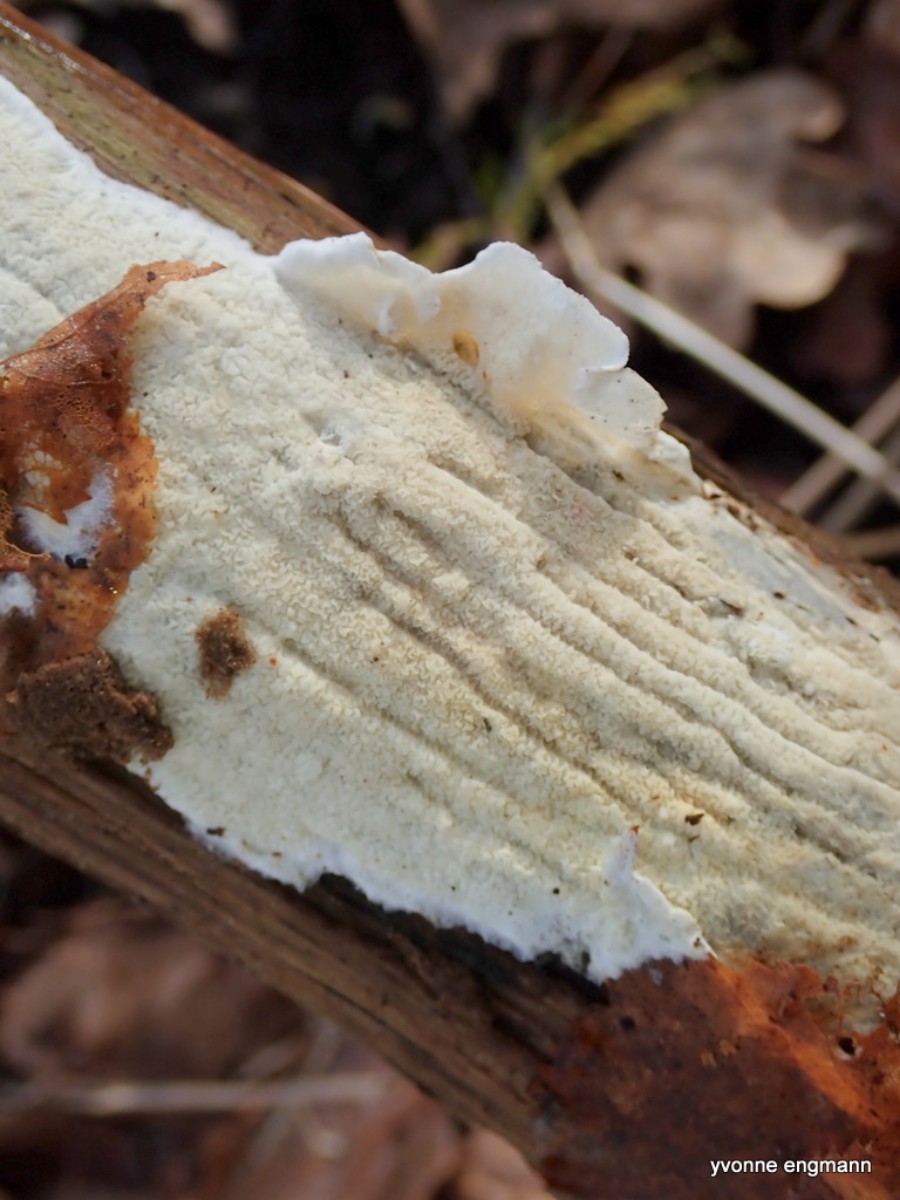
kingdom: Fungi
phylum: Basidiomycota
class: Agaricomycetes
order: Polyporales
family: Irpicaceae
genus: Byssomerulius
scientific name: Byssomerulius corium
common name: læder-åresvamp
